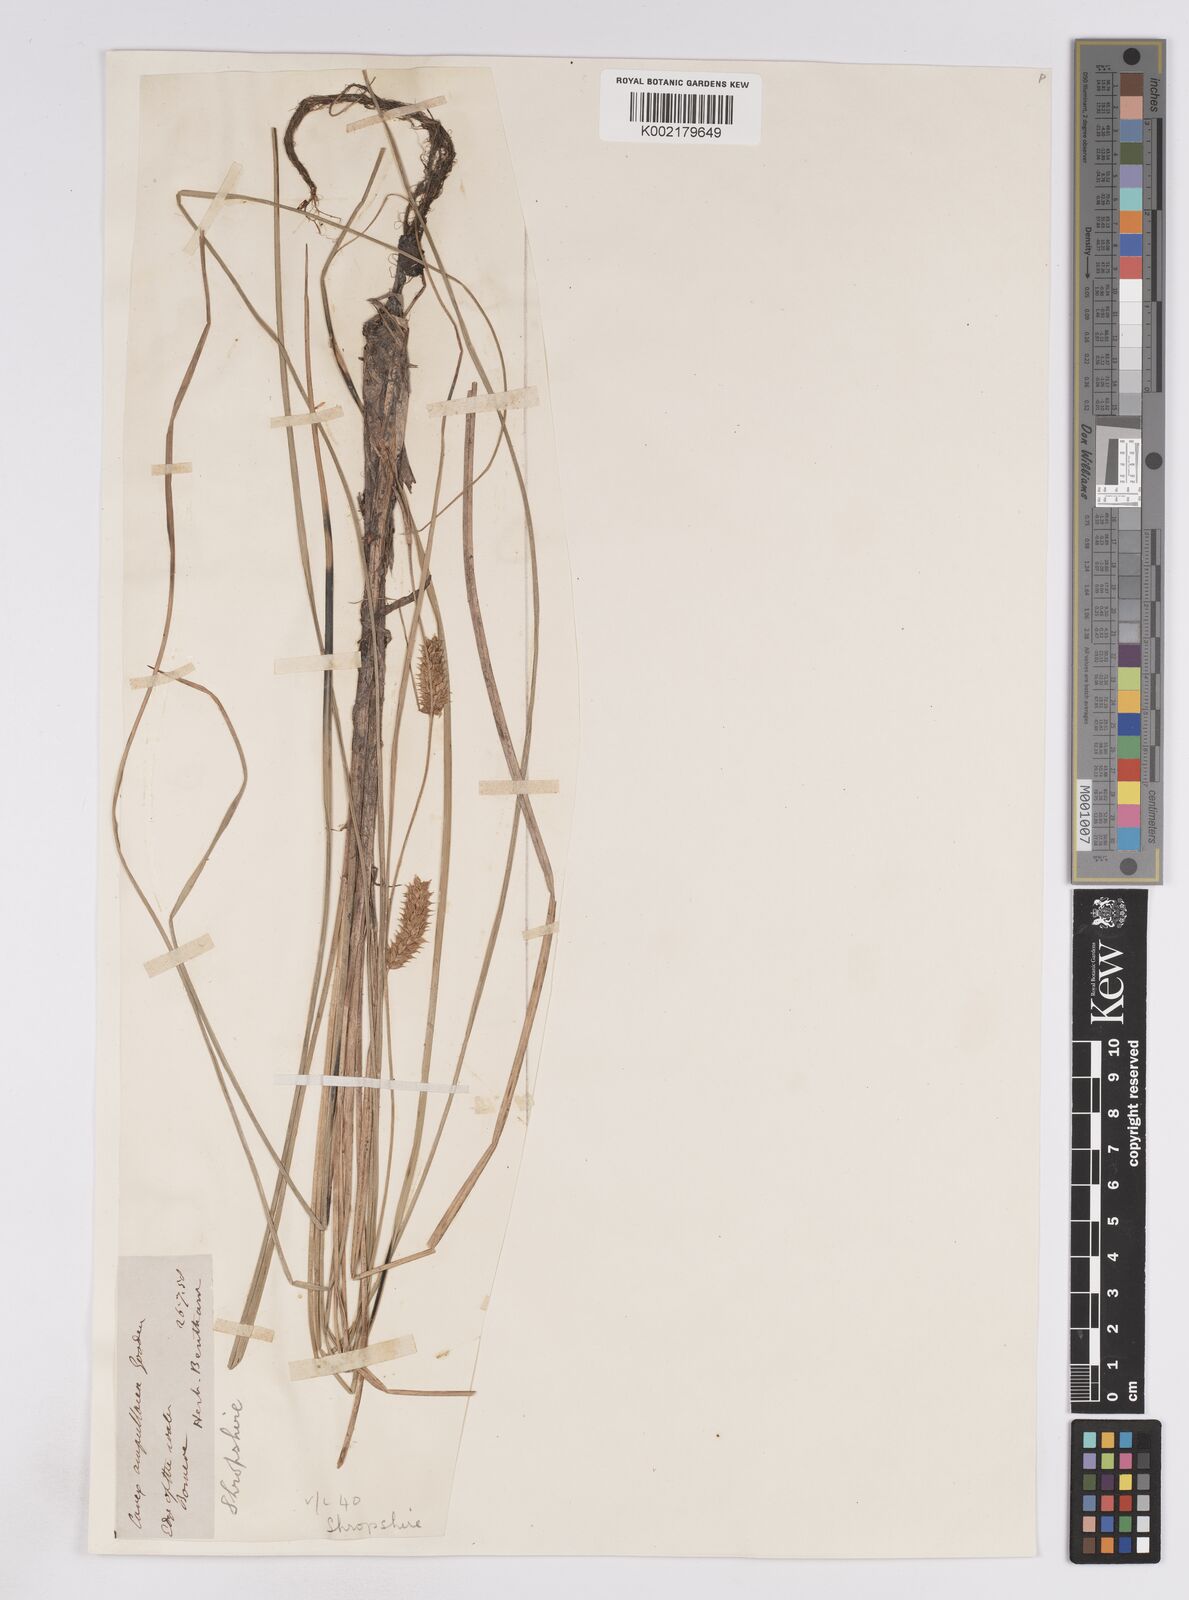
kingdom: Plantae
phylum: Tracheophyta
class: Liliopsida
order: Poales
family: Cyperaceae
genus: Carex
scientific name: Carex rostrata
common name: Bottle sedge
